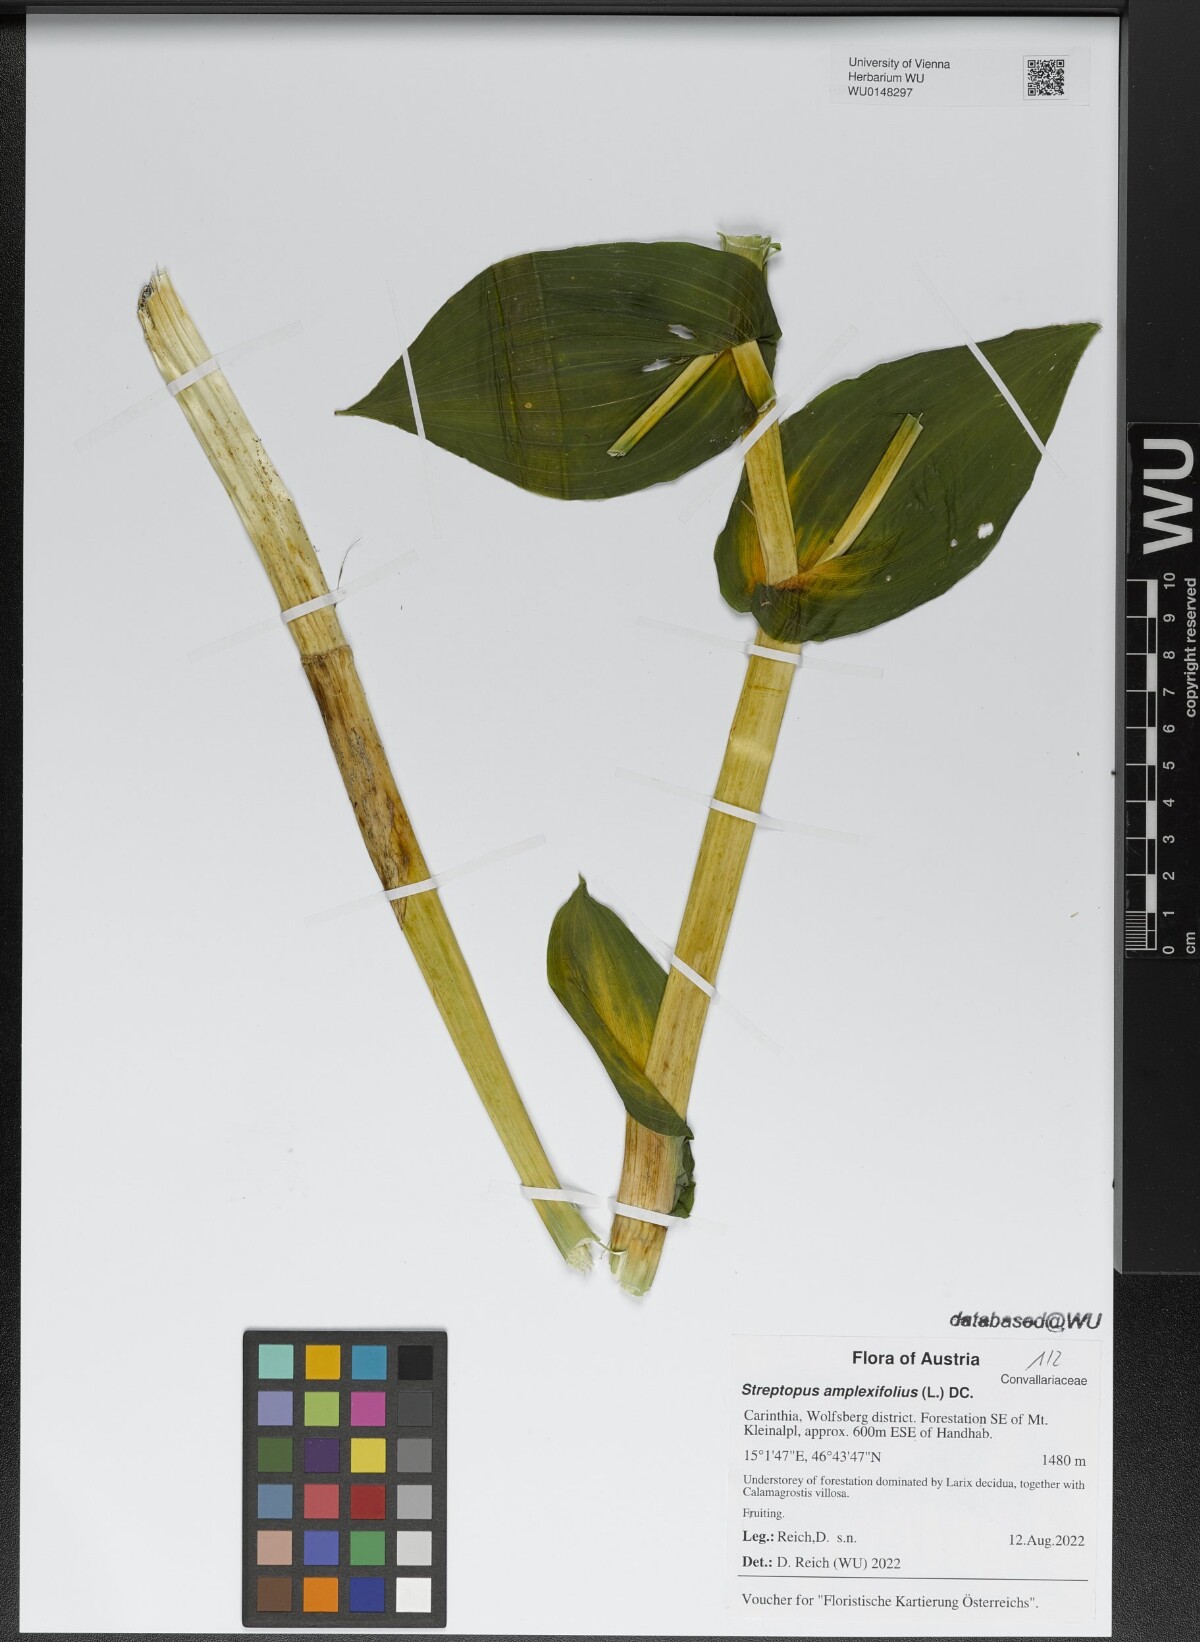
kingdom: Plantae
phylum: Tracheophyta
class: Liliopsida
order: Liliales
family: Liliaceae
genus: Streptopus
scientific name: Streptopus amplexifolius
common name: Clasp twisted stalk
